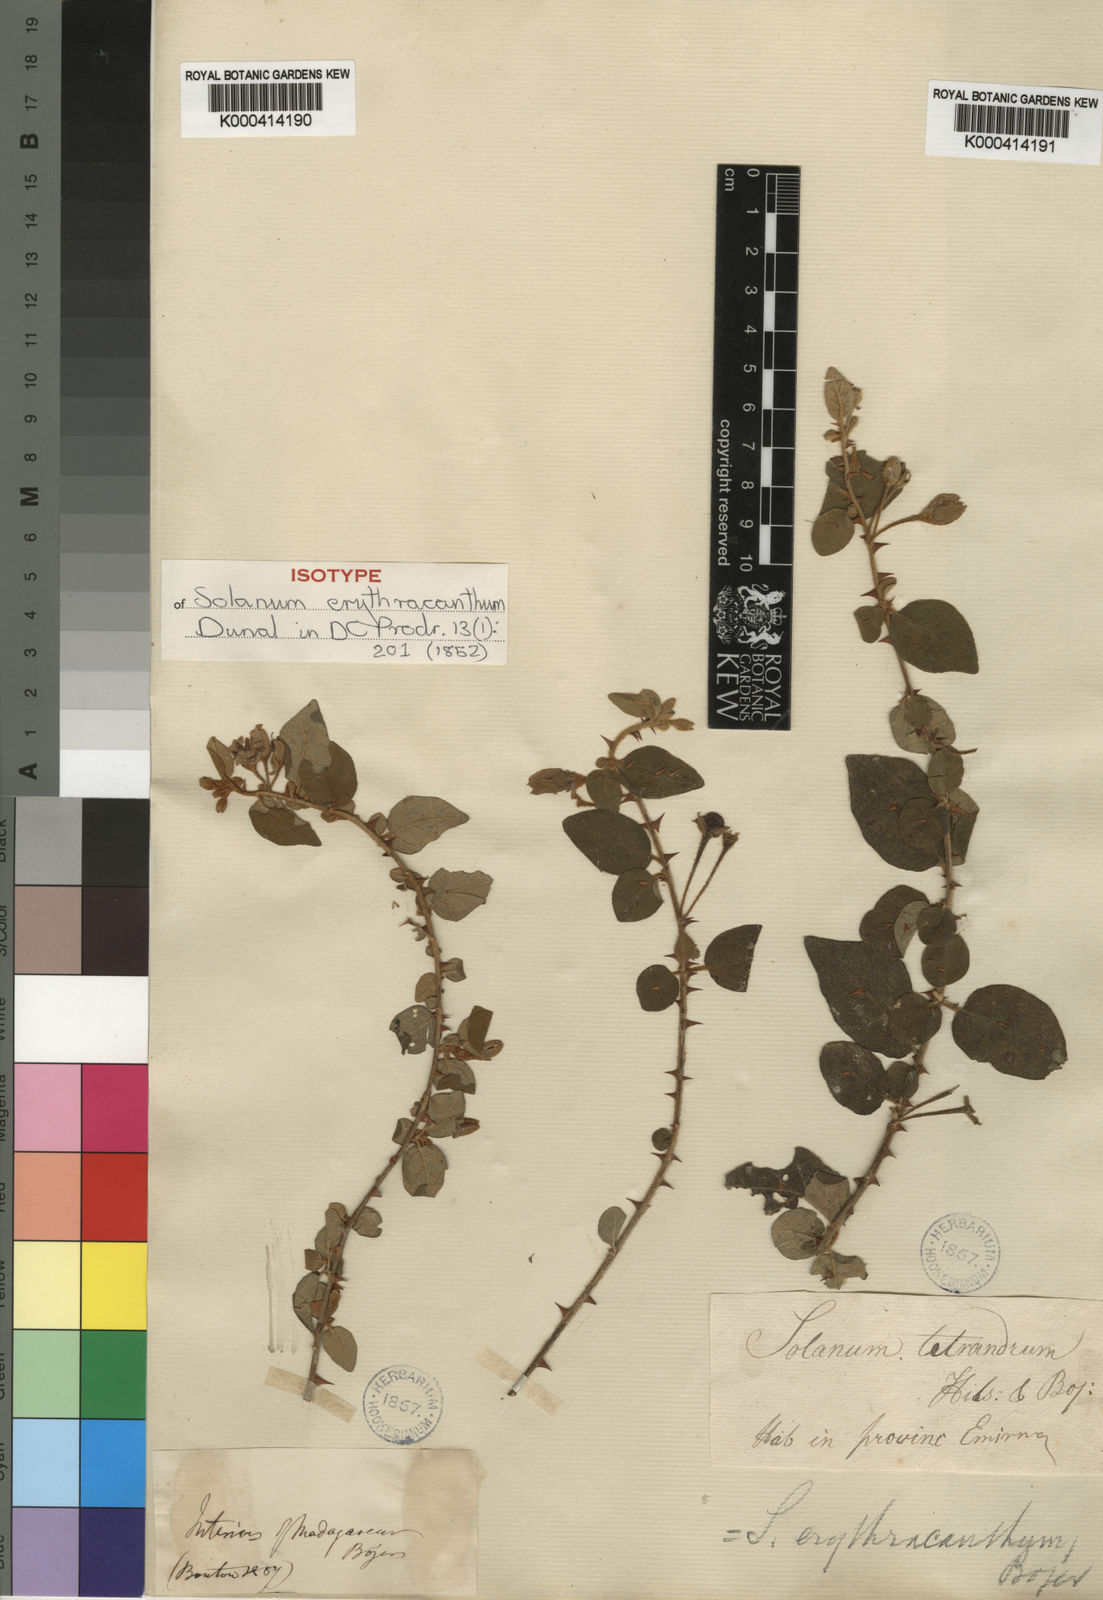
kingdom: Plantae
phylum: Tracheophyta
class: Magnoliopsida
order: Solanales
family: Solanaceae
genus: Solanum
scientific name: Solanum erythracanthum
